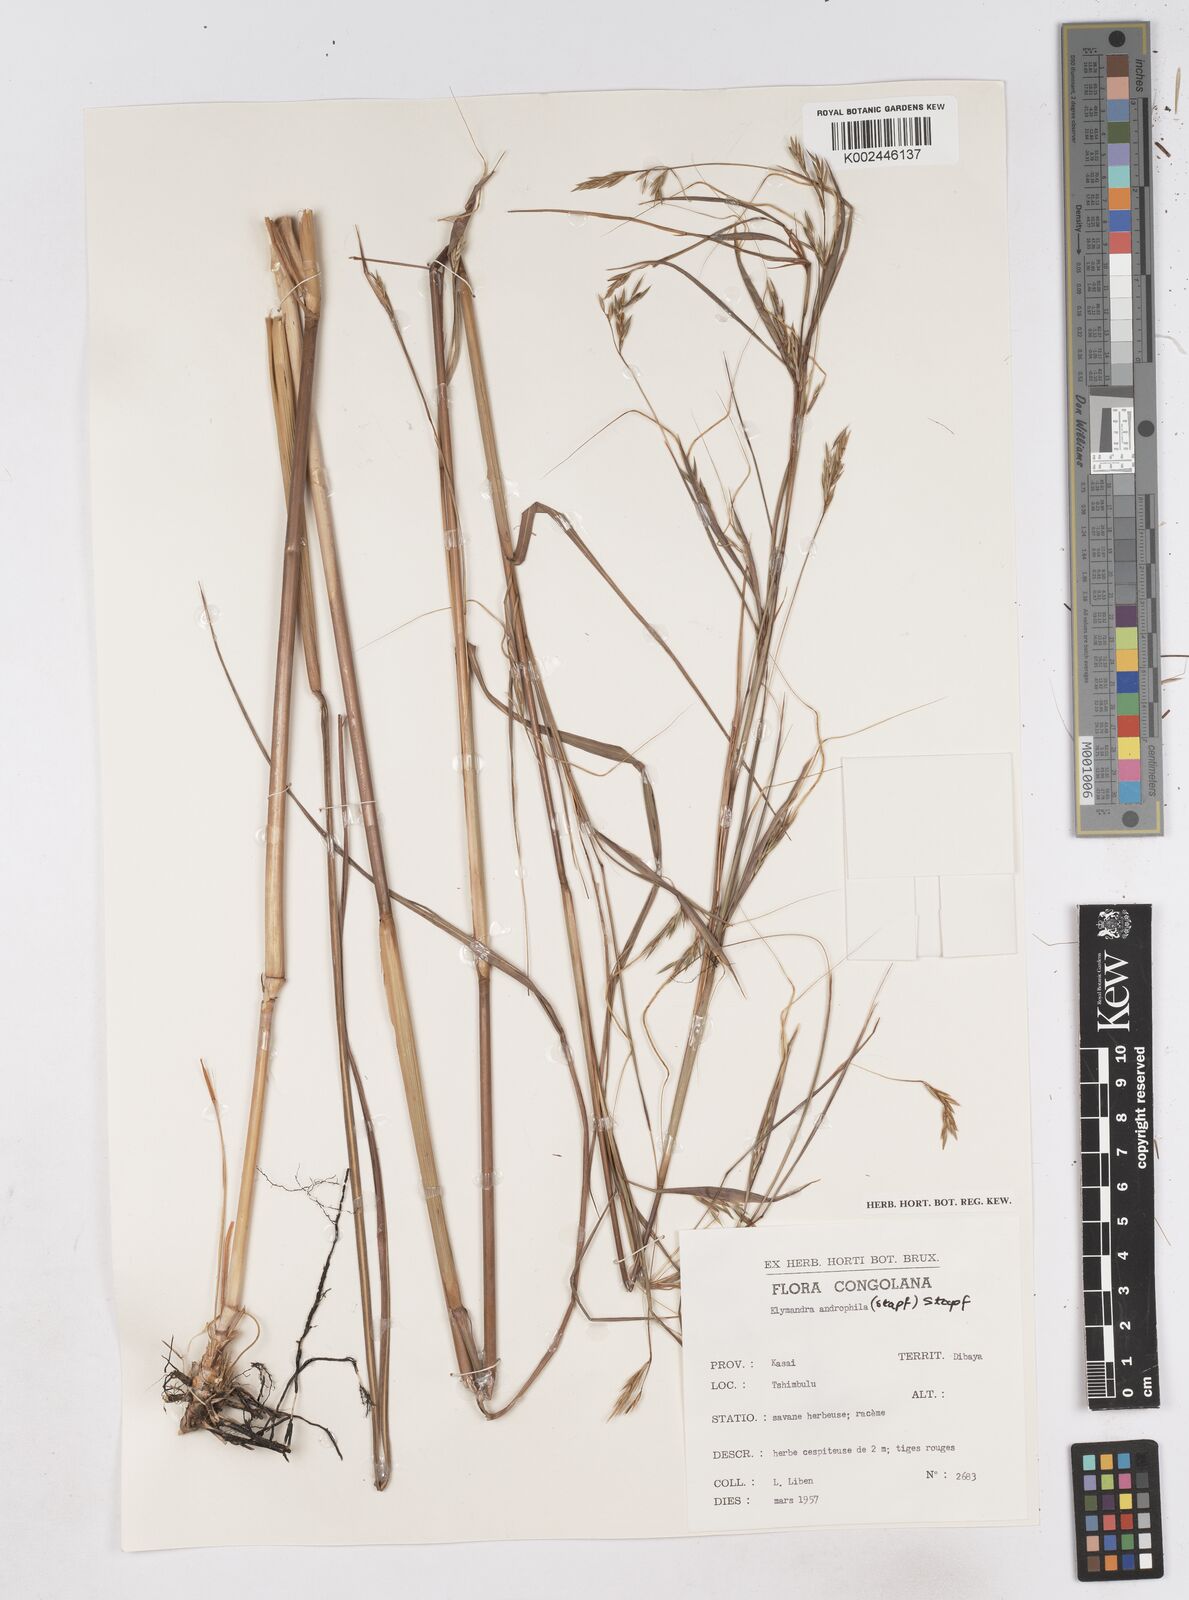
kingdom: Plantae
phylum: Tracheophyta
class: Liliopsida
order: Poales
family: Poaceae
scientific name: Poaceae
